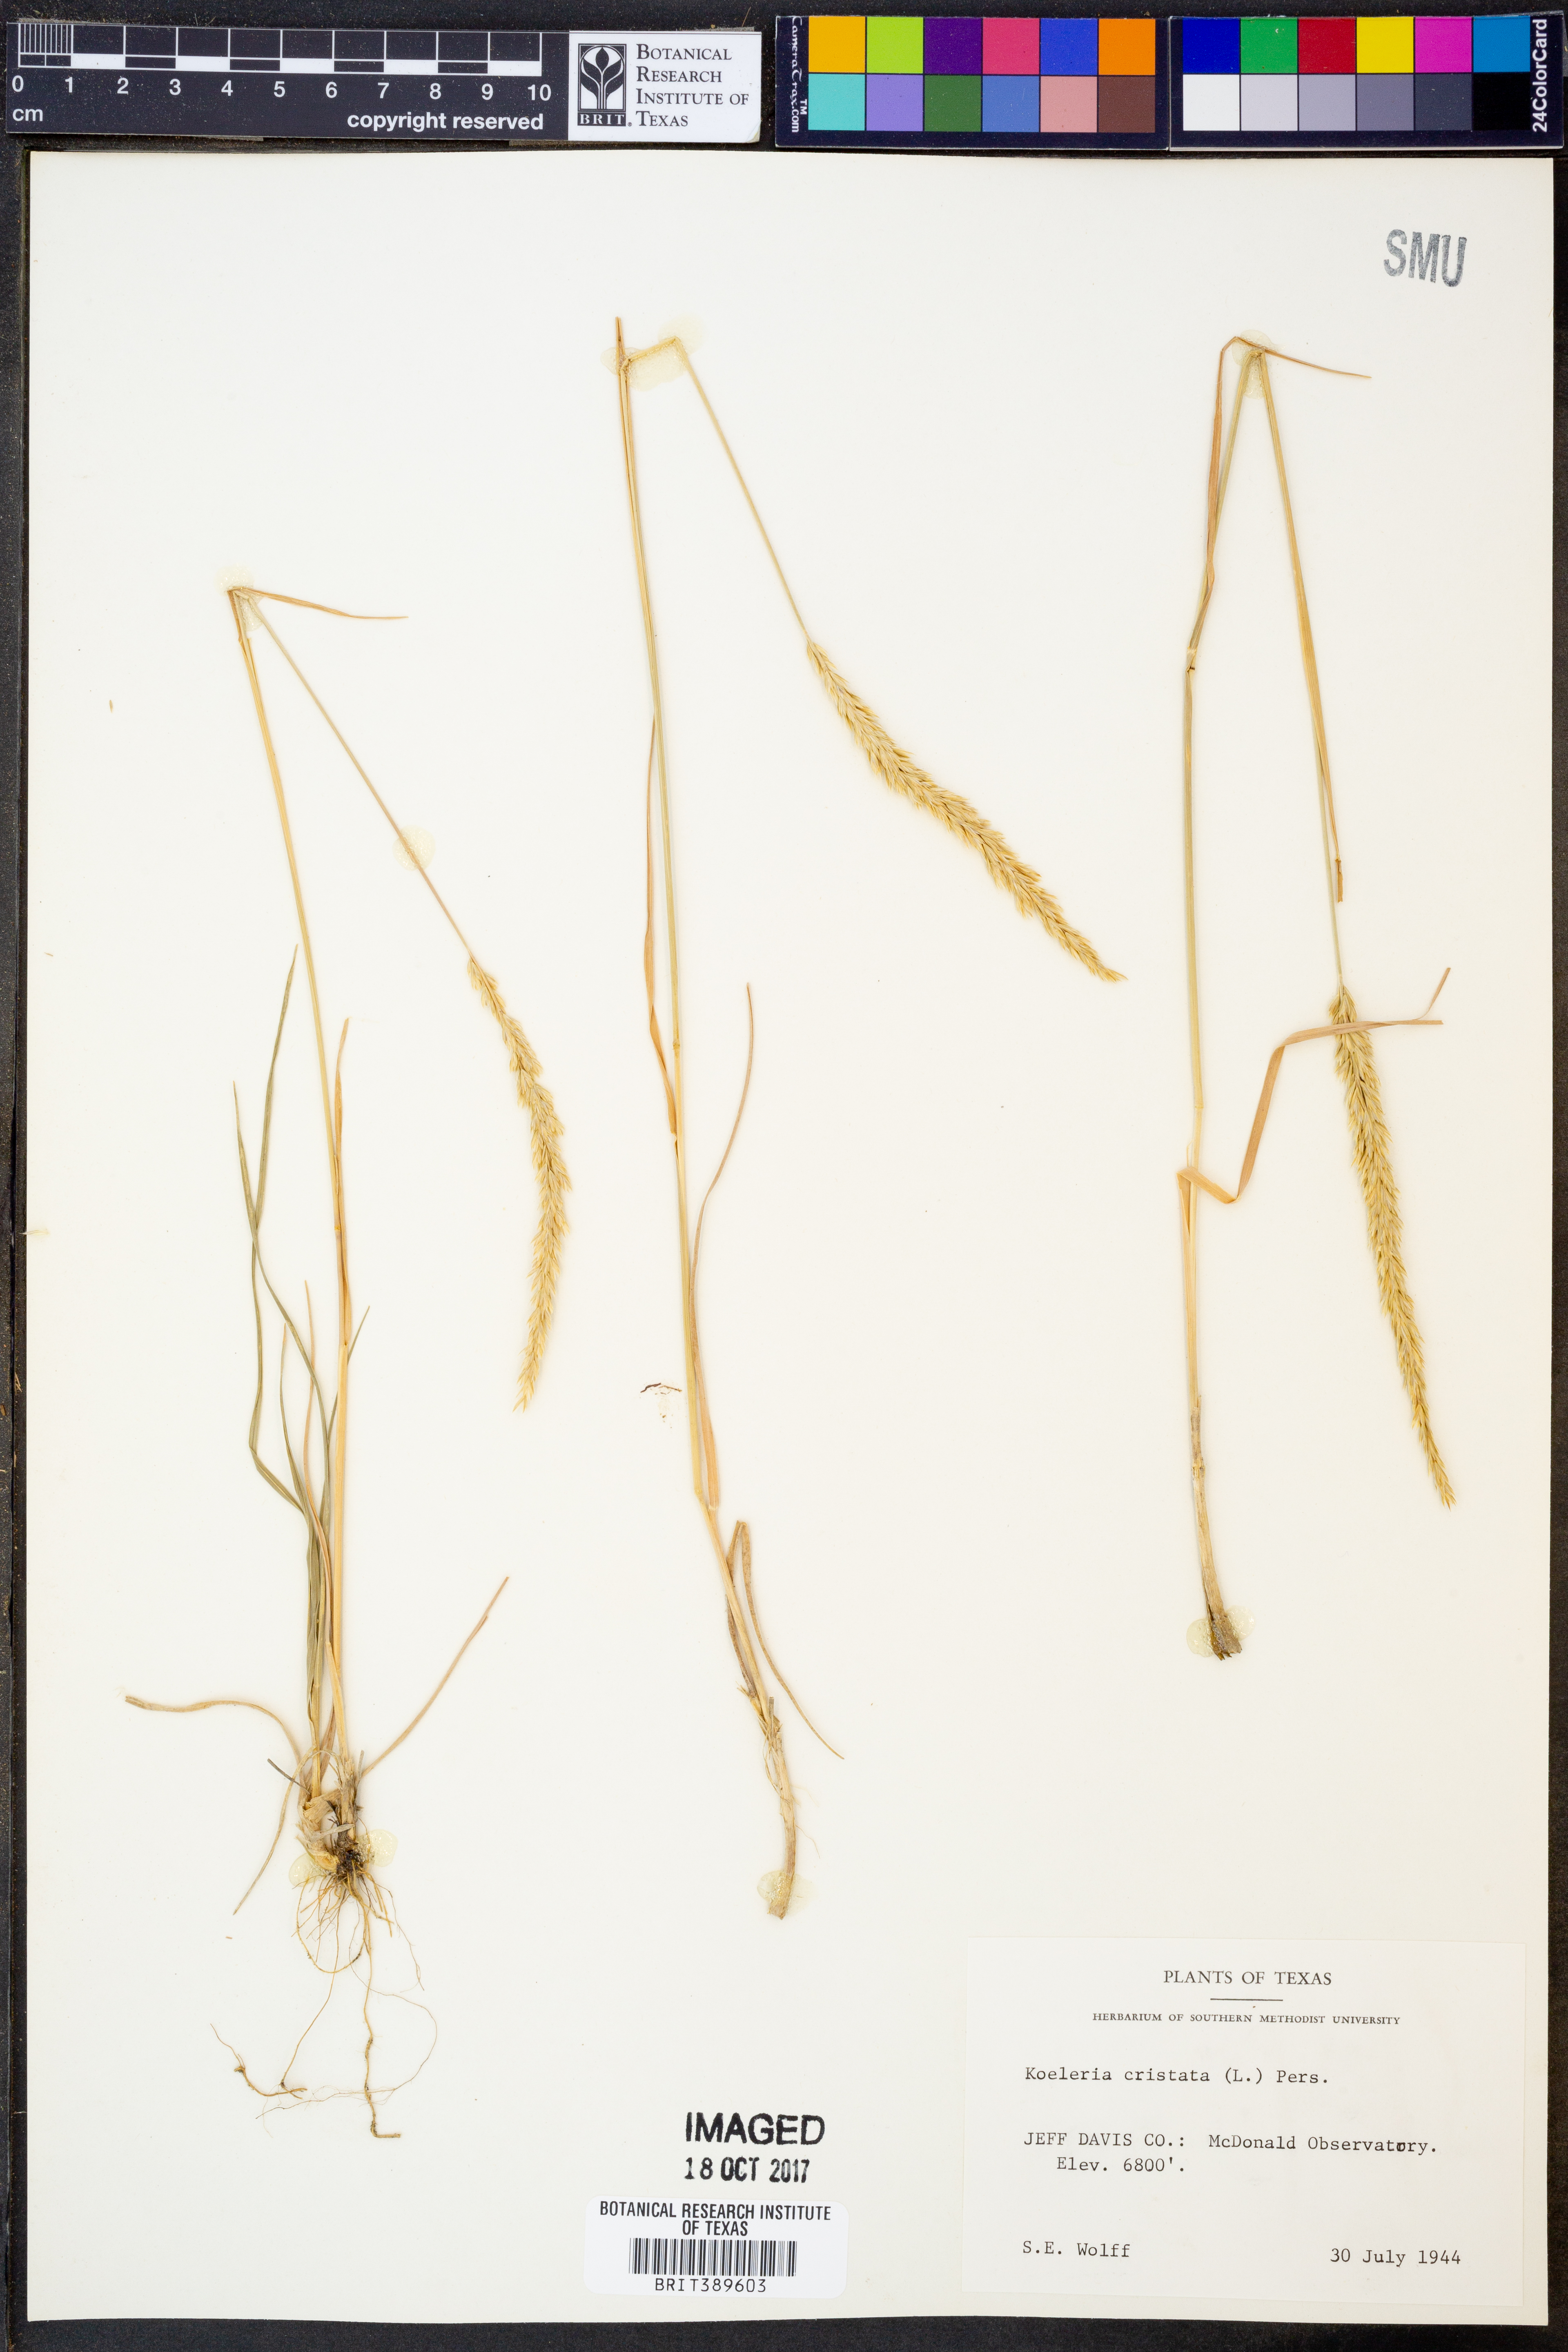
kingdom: Plantae
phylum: Tracheophyta
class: Liliopsida
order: Poales
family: Poaceae
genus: Koeleria
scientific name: Koeleria cristata
